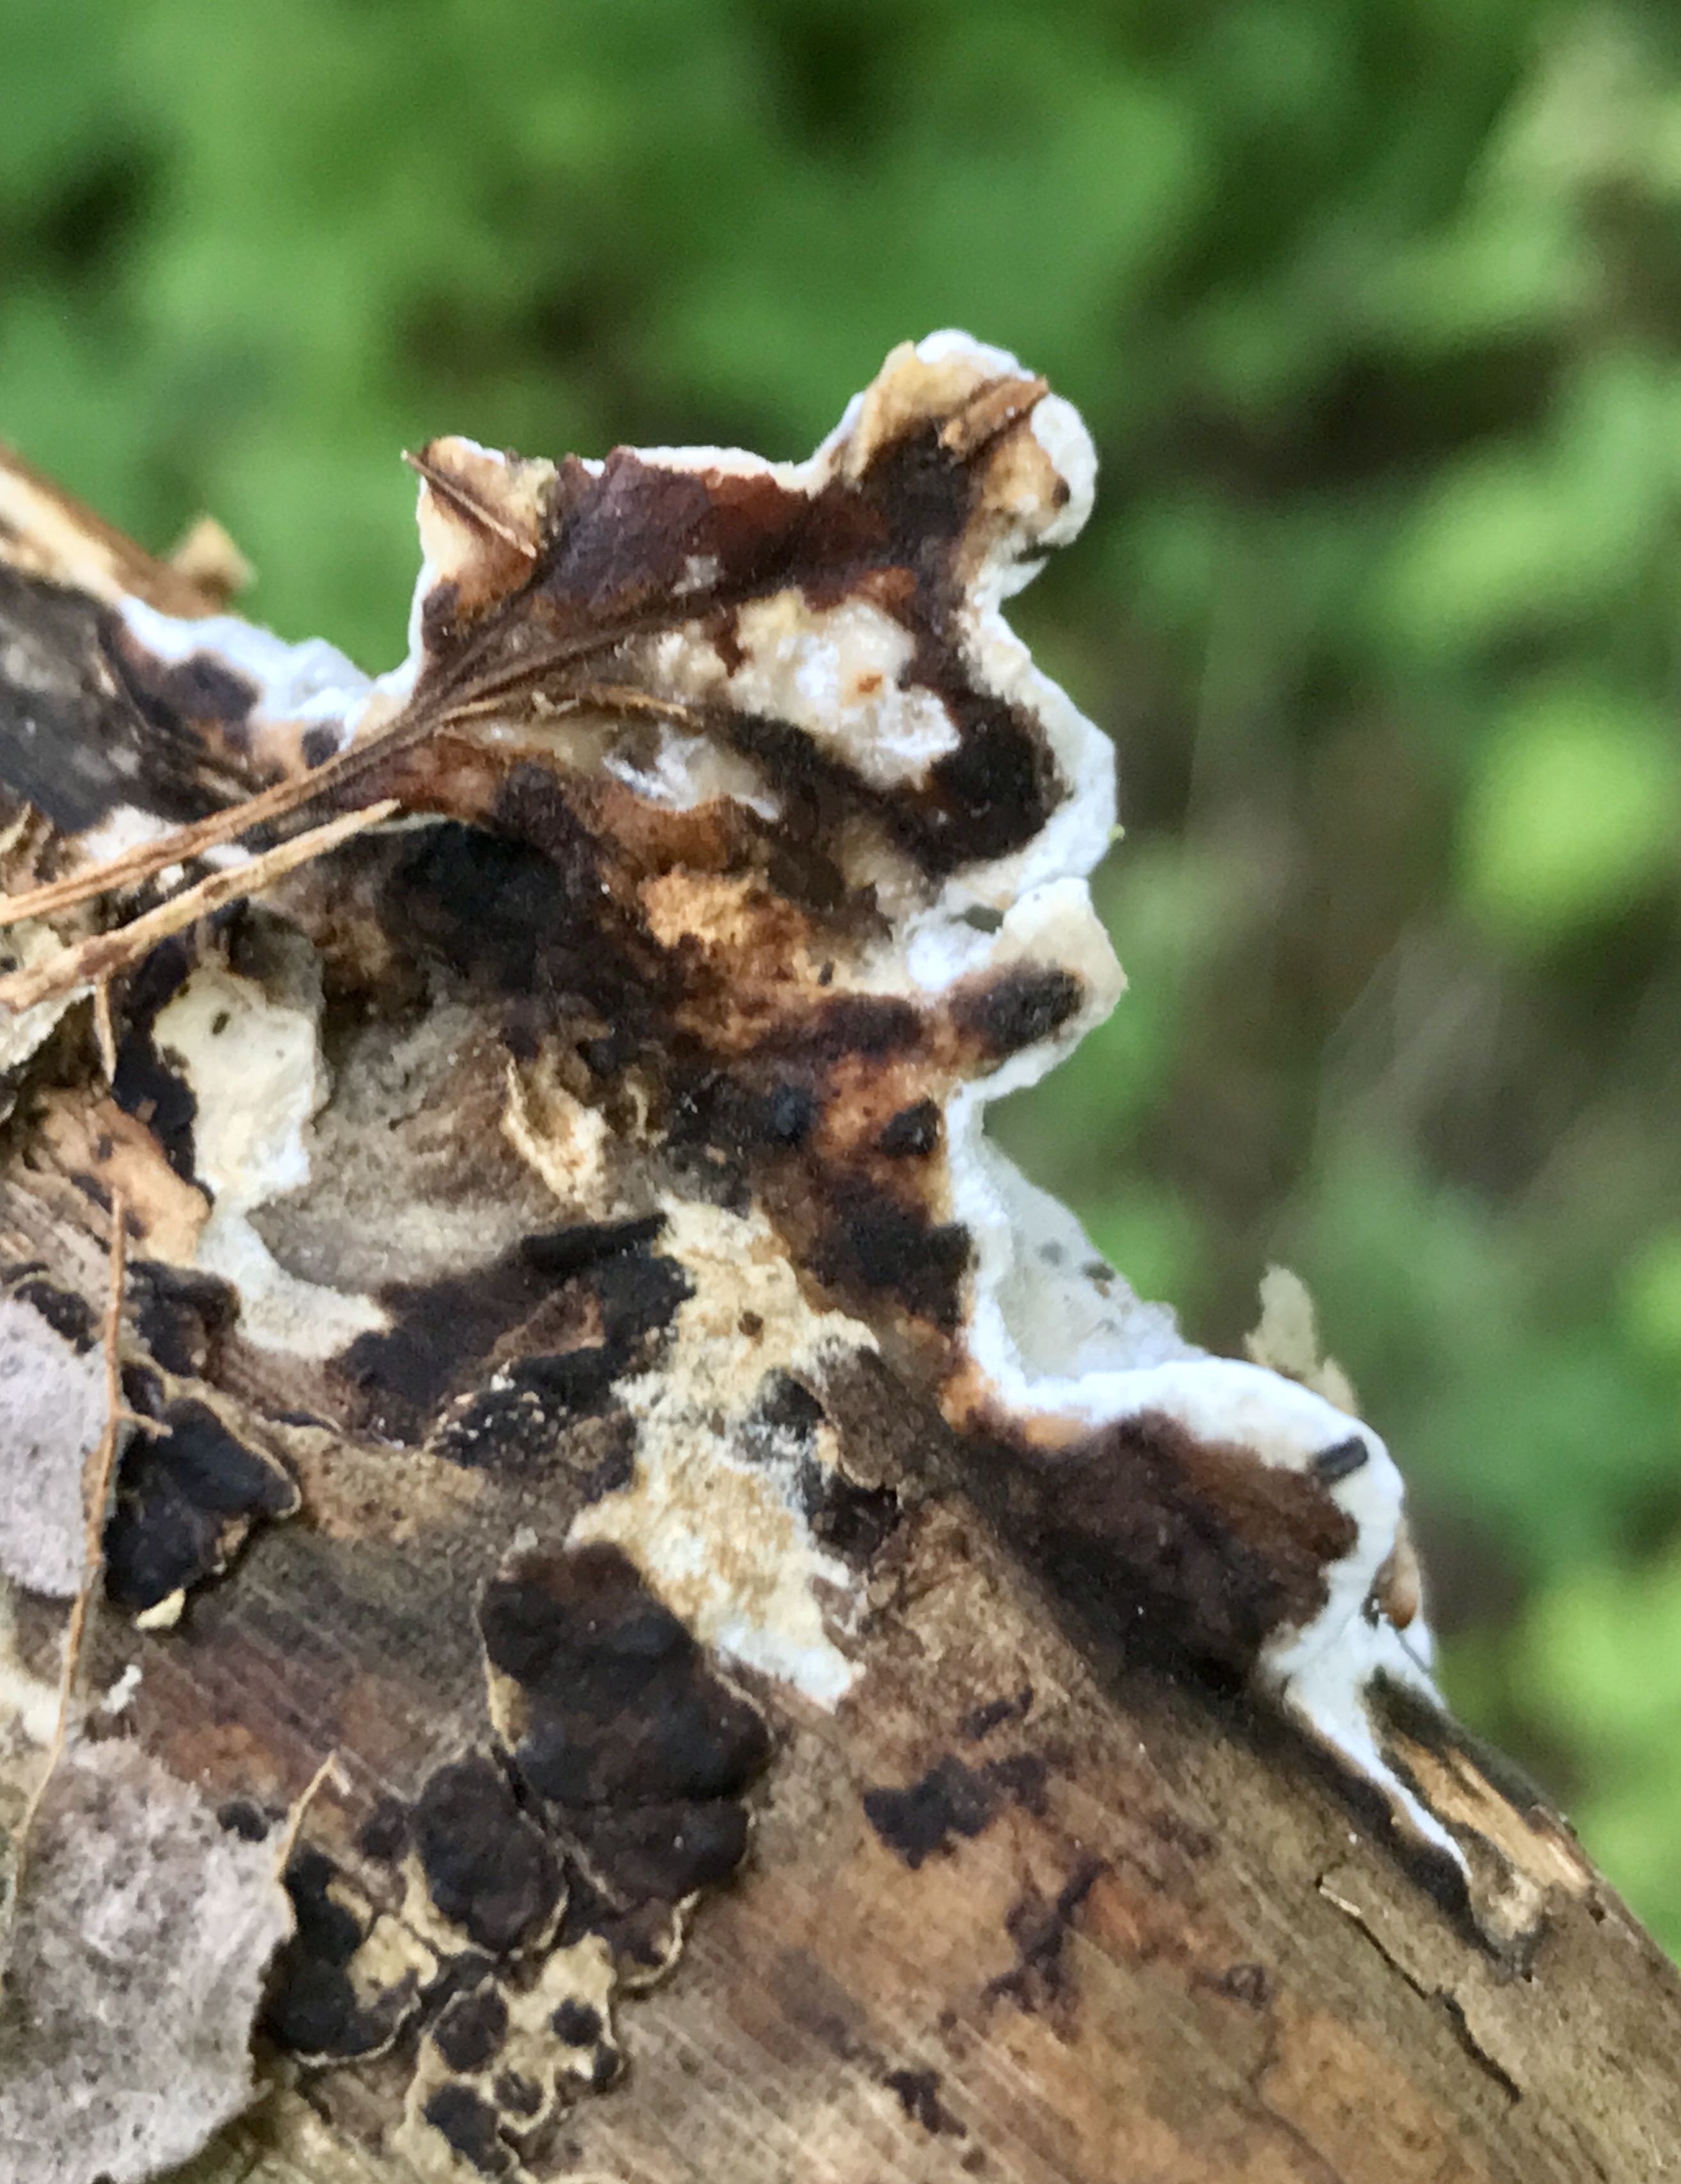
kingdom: Fungi
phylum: Basidiomycota
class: Agaricomycetes
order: Polyporales
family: Incrustoporiaceae
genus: Skeletocutis
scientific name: Skeletocutis nemoralis
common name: stor krystalporesvamp
